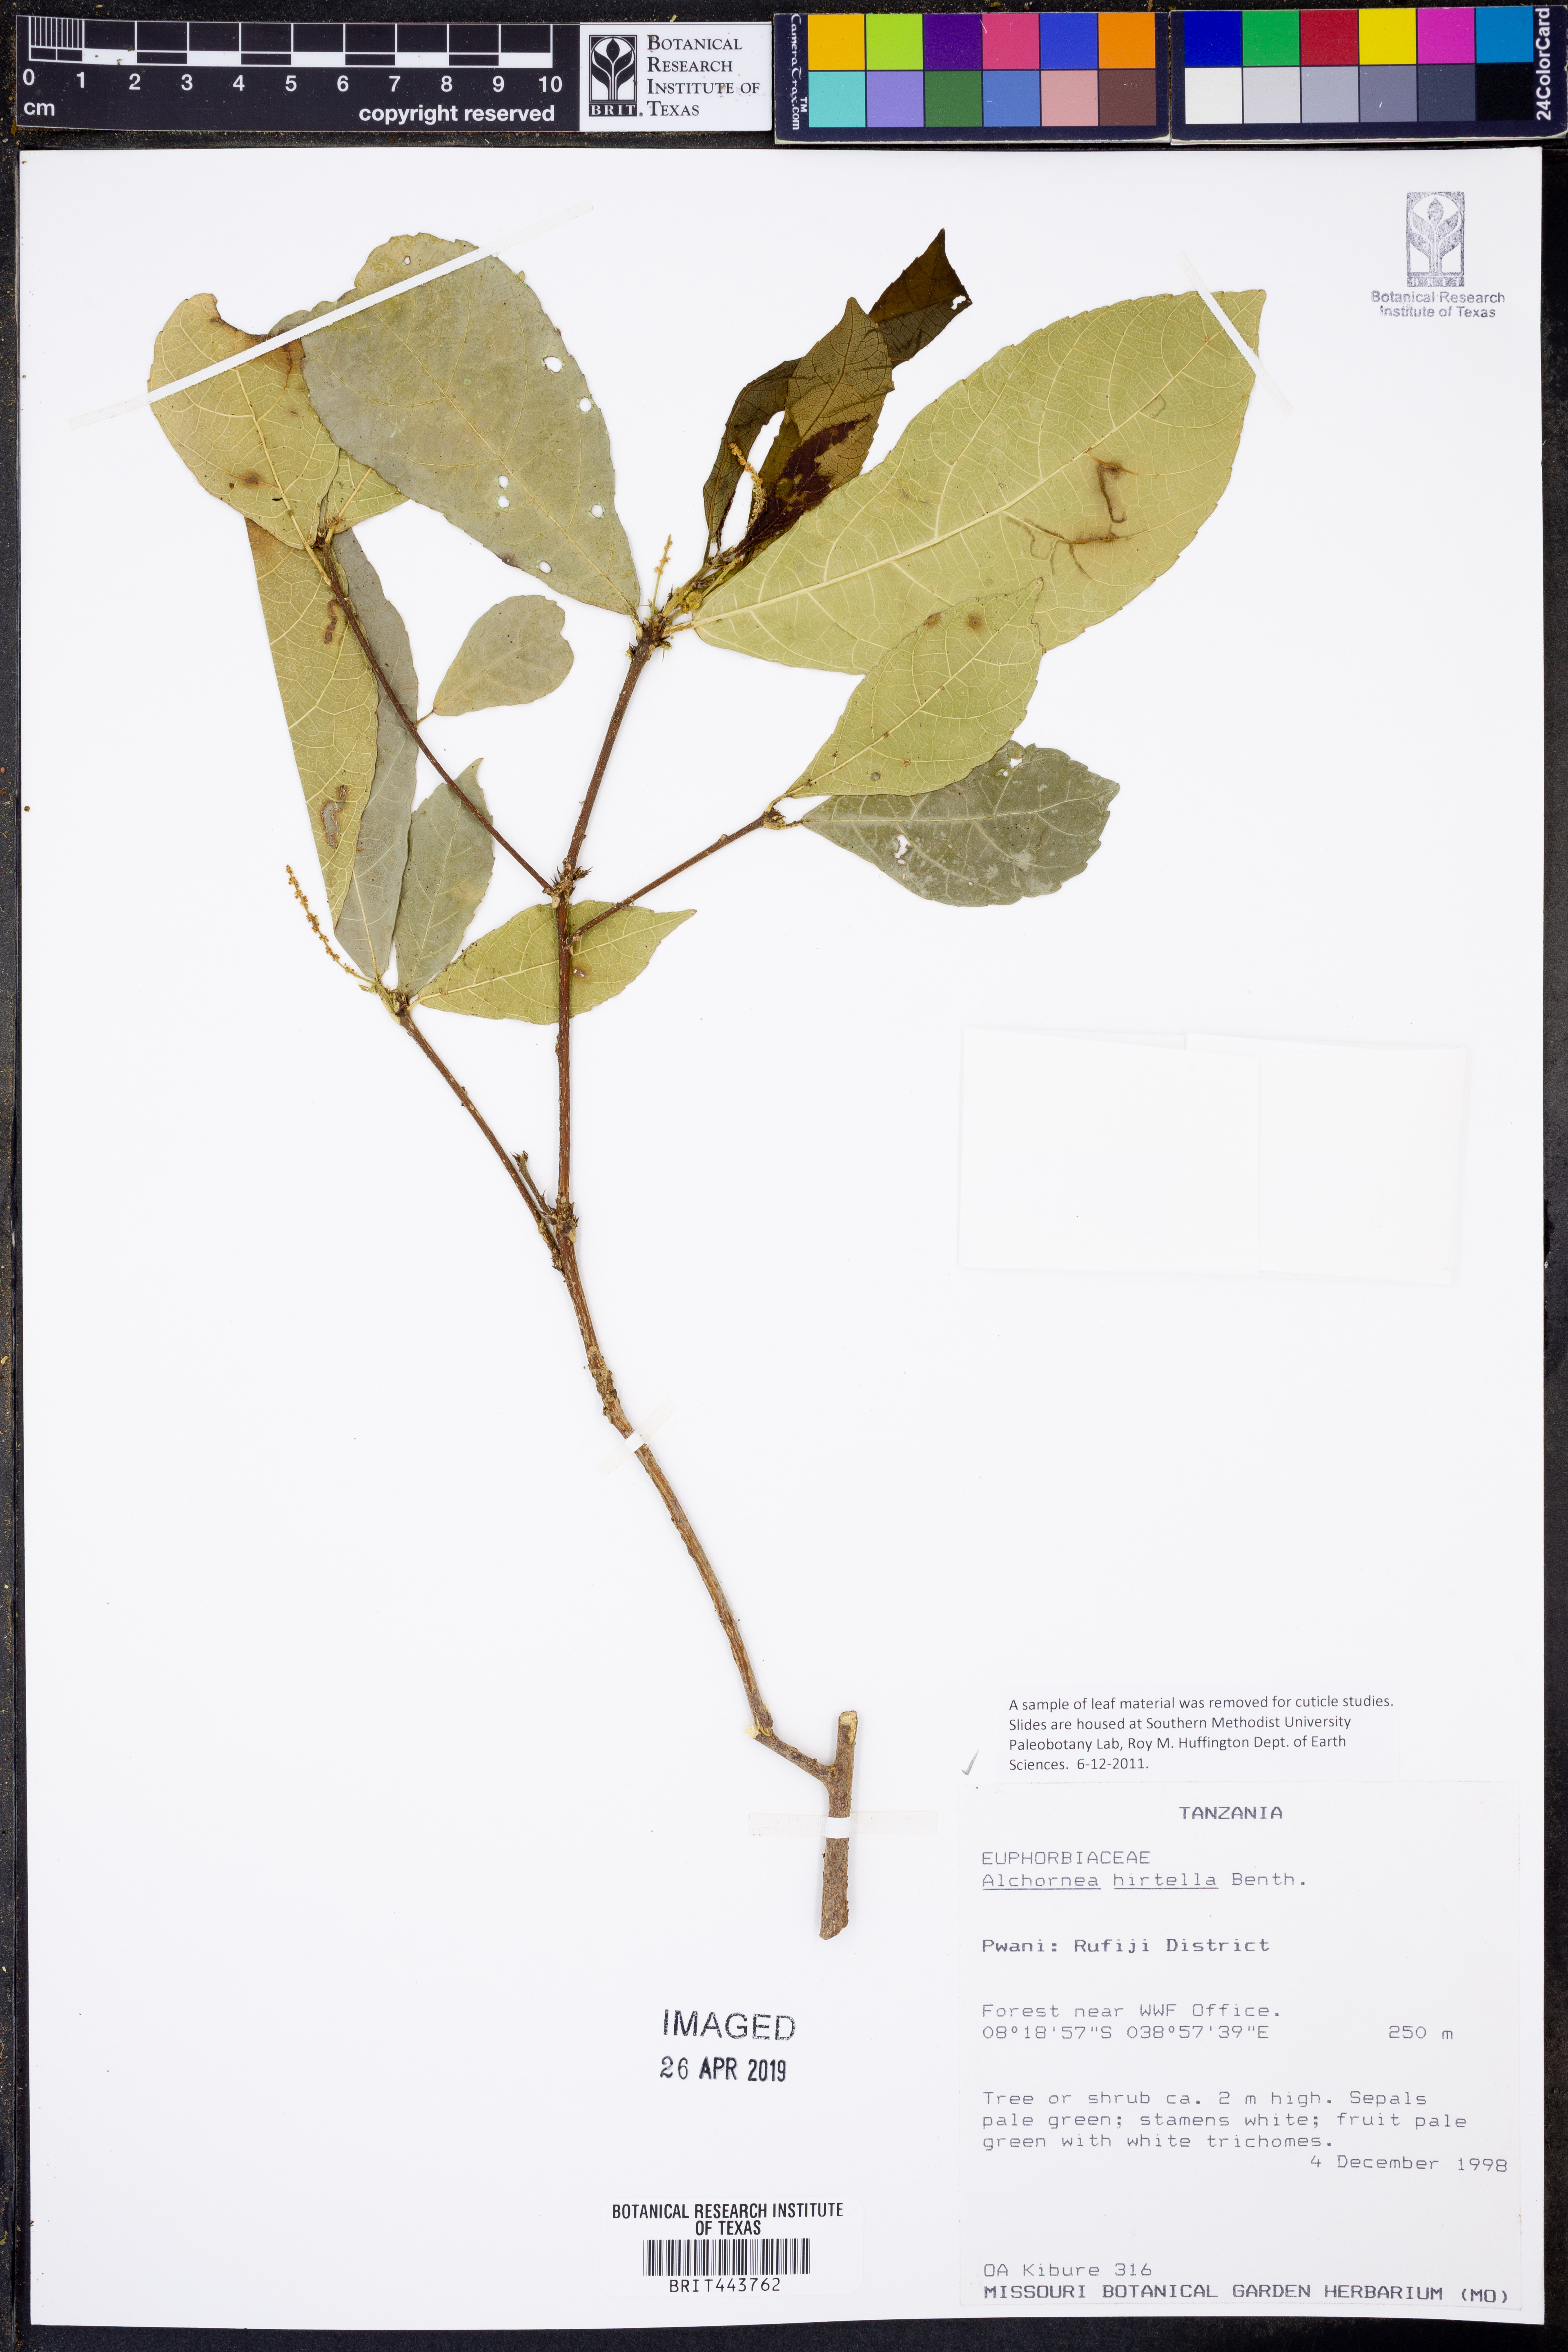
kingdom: Plantae
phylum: Tracheophyta
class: Magnoliopsida
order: Malpighiales
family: Euphorbiaceae
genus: Alchornea
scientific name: Alchornea hirtella
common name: Forest bead-string
